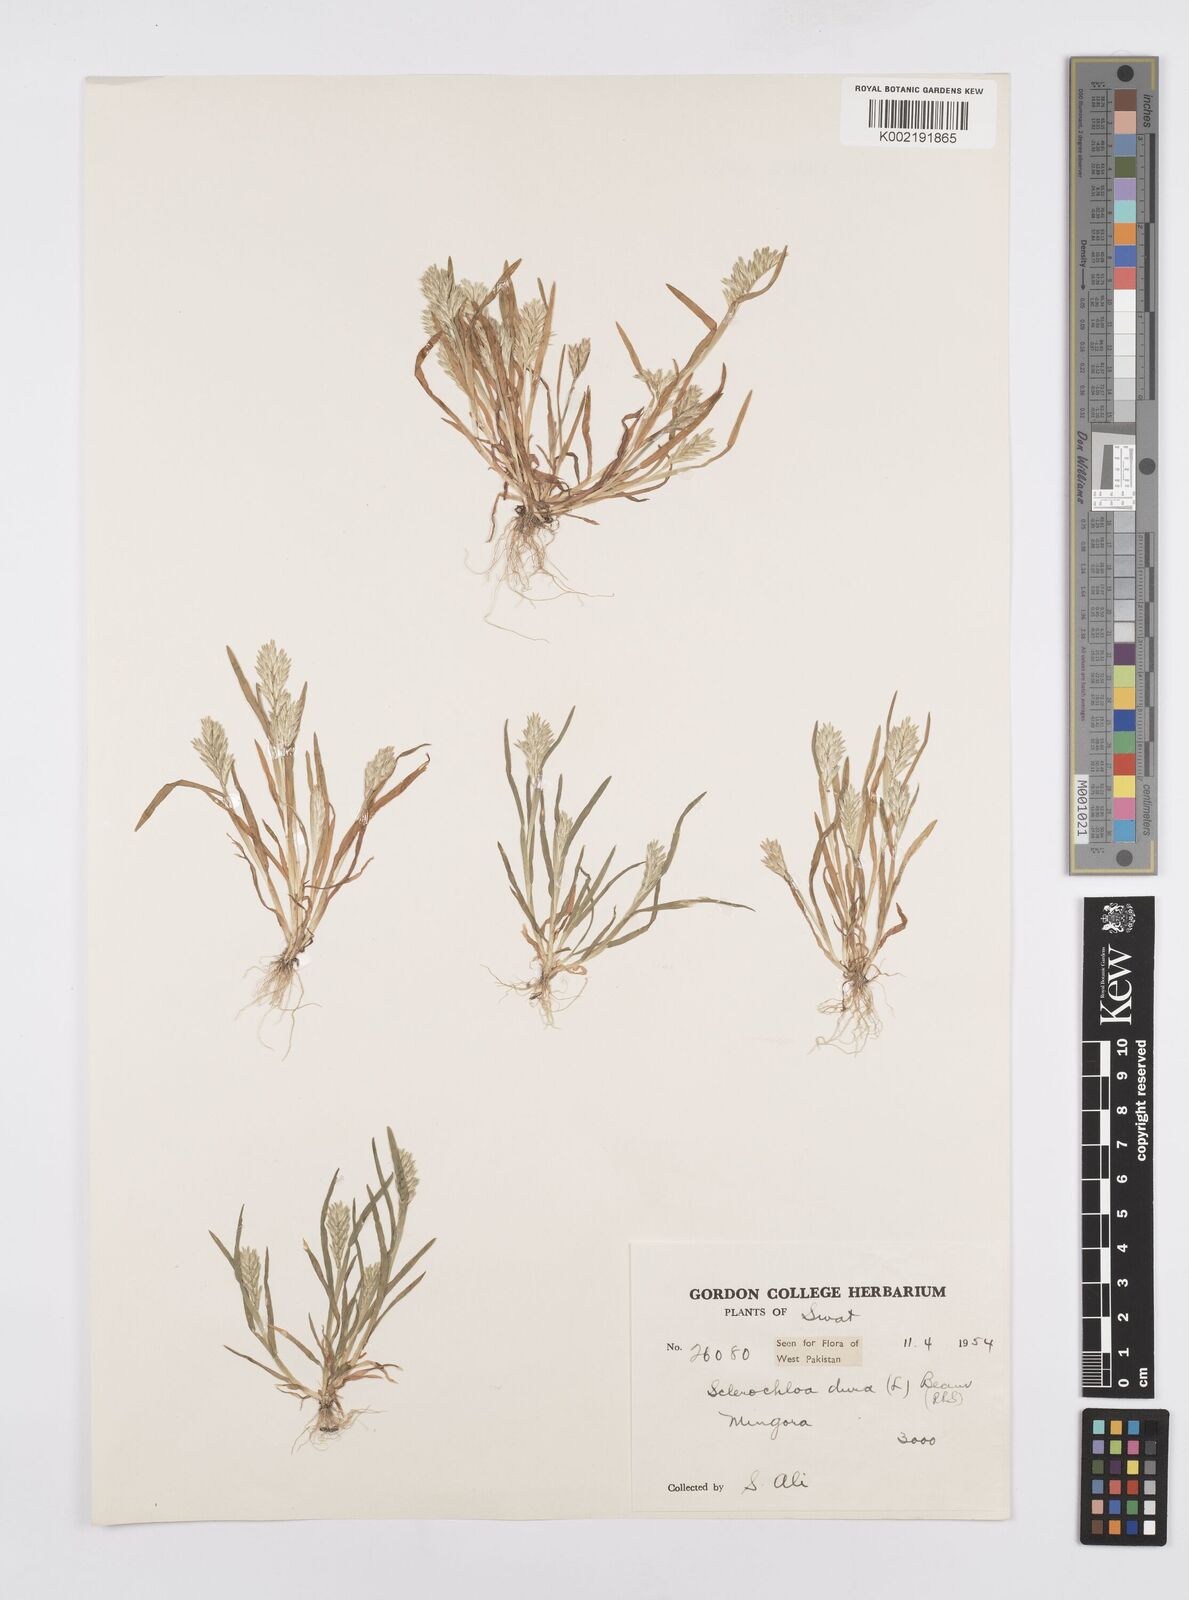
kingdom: Plantae
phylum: Tracheophyta
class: Liliopsida
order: Poales
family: Poaceae
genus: Sclerochloa
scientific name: Sclerochloa dura
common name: Common hardgrass
